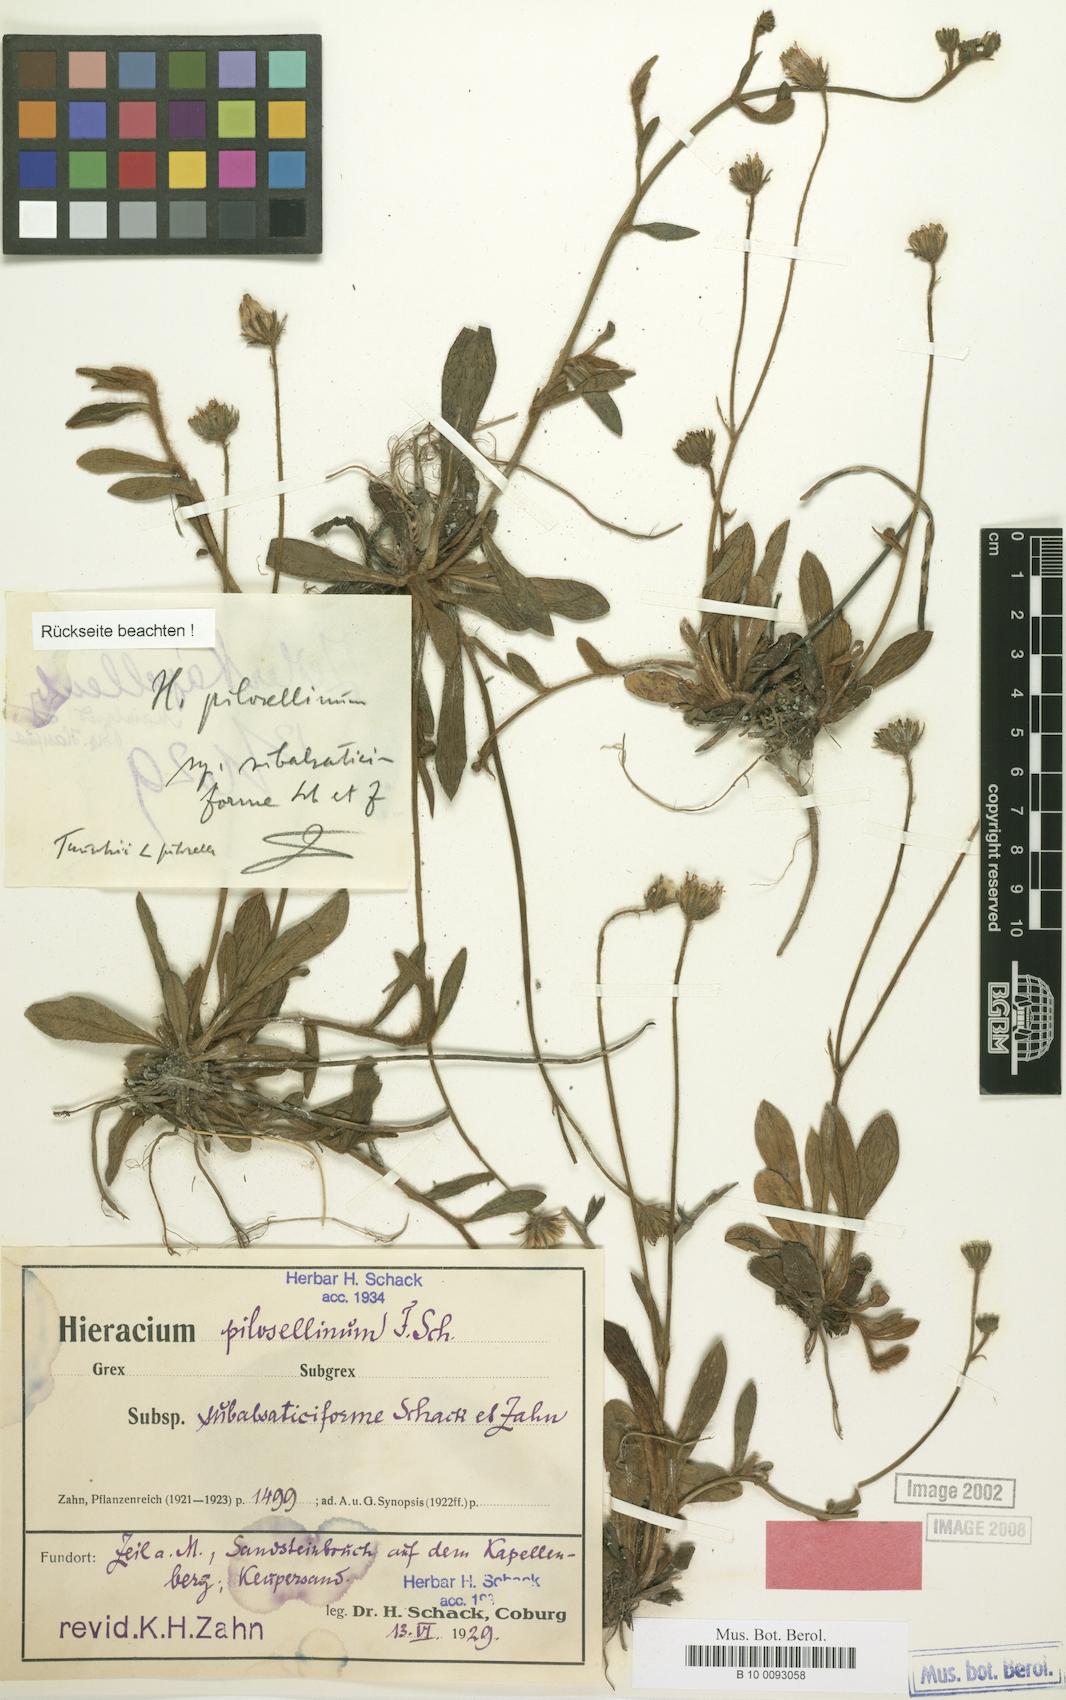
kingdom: Plantae
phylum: Tracheophyta
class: Magnoliopsida
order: Asterales
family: Asteraceae
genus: Pilosella
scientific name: Pilosella pilosellina
